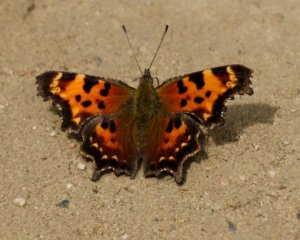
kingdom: Animalia
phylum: Arthropoda
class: Insecta
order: Lepidoptera
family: Nymphalidae
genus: Polygonia
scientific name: Polygonia faunus
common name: Green Comma
